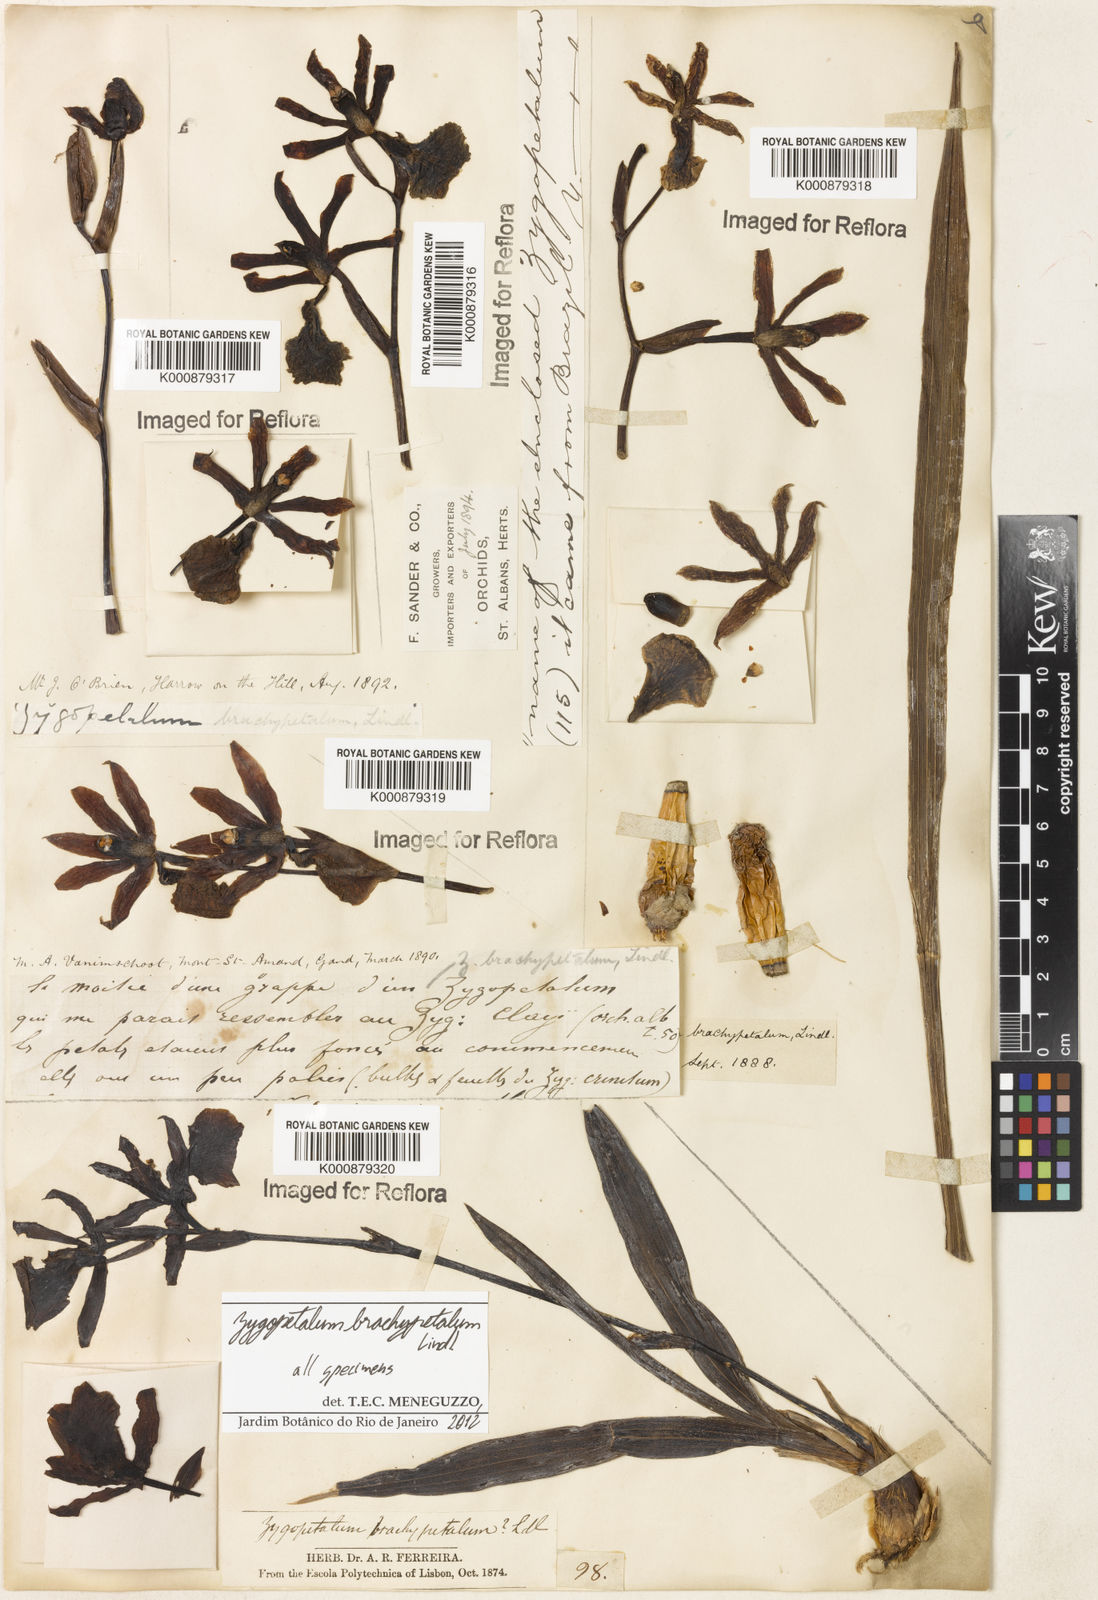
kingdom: Plantae
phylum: Tracheophyta
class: Liliopsida
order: Asparagales
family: Orchidaceae
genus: Zygopetalum
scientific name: Zygopetalum brachypetalum
